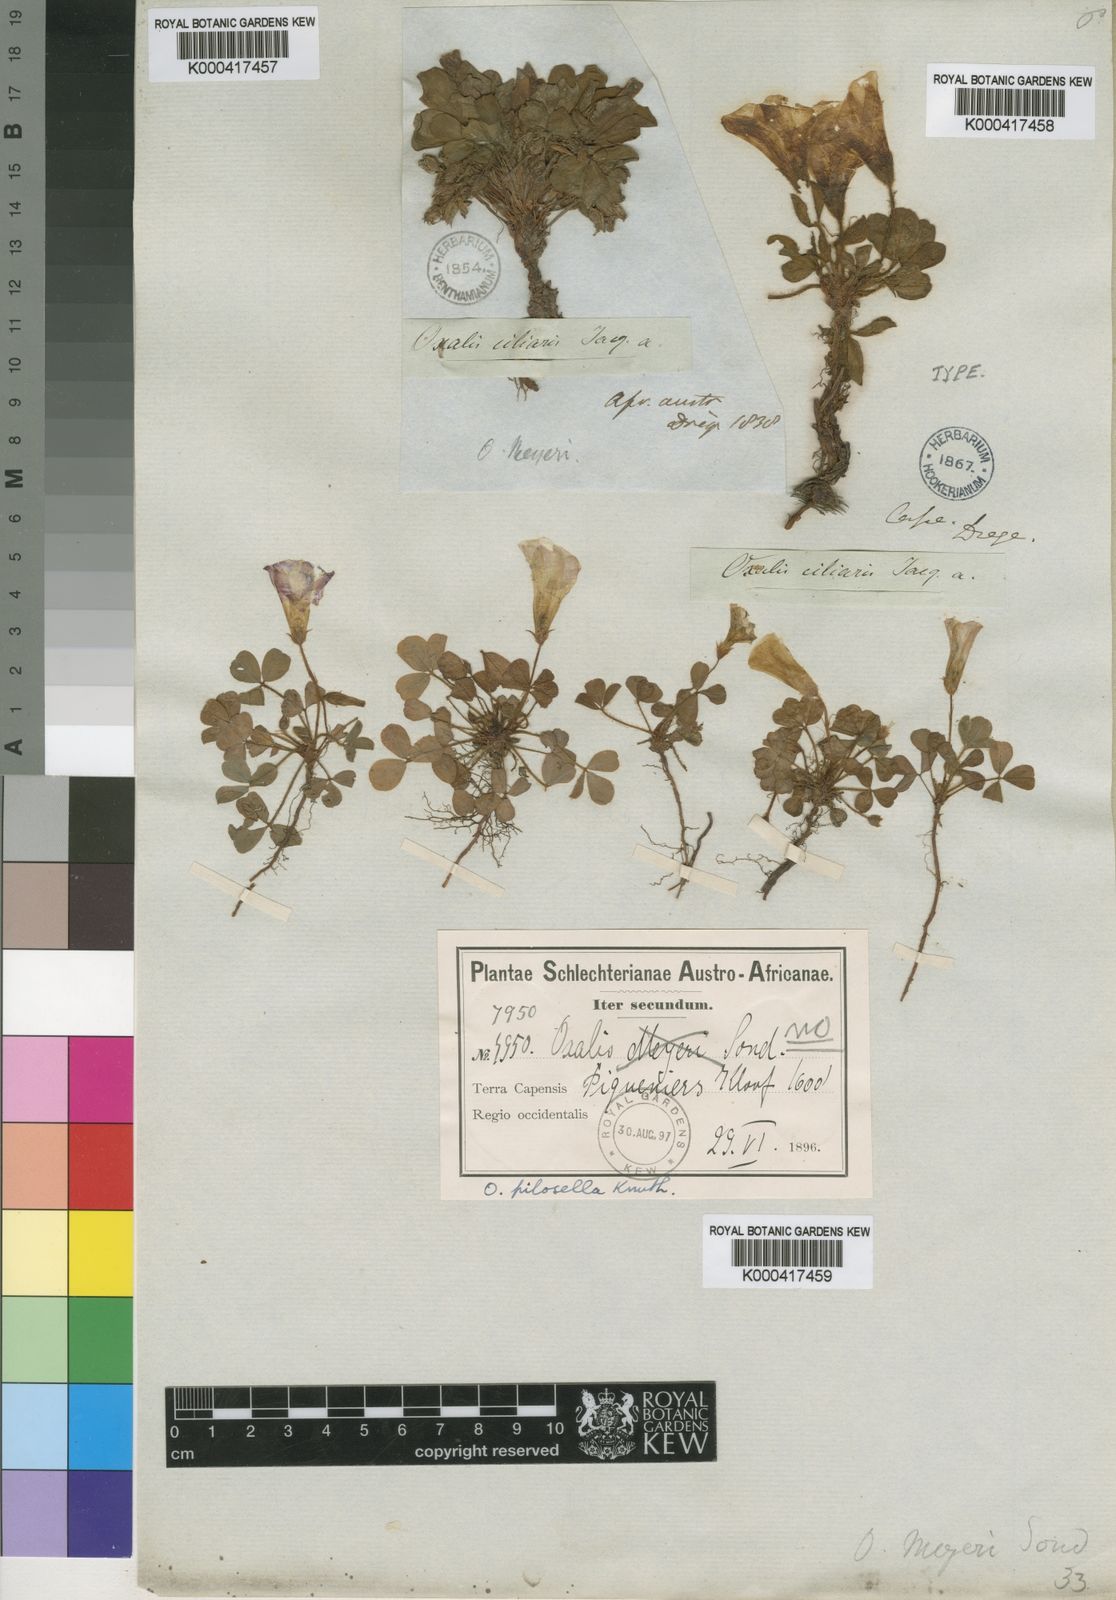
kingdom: Plantae
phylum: Tracheophyta
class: Magnoliopsida
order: Oxalidales
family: Oxalidaceae
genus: Oxalis
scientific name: Oxalis adspersa
